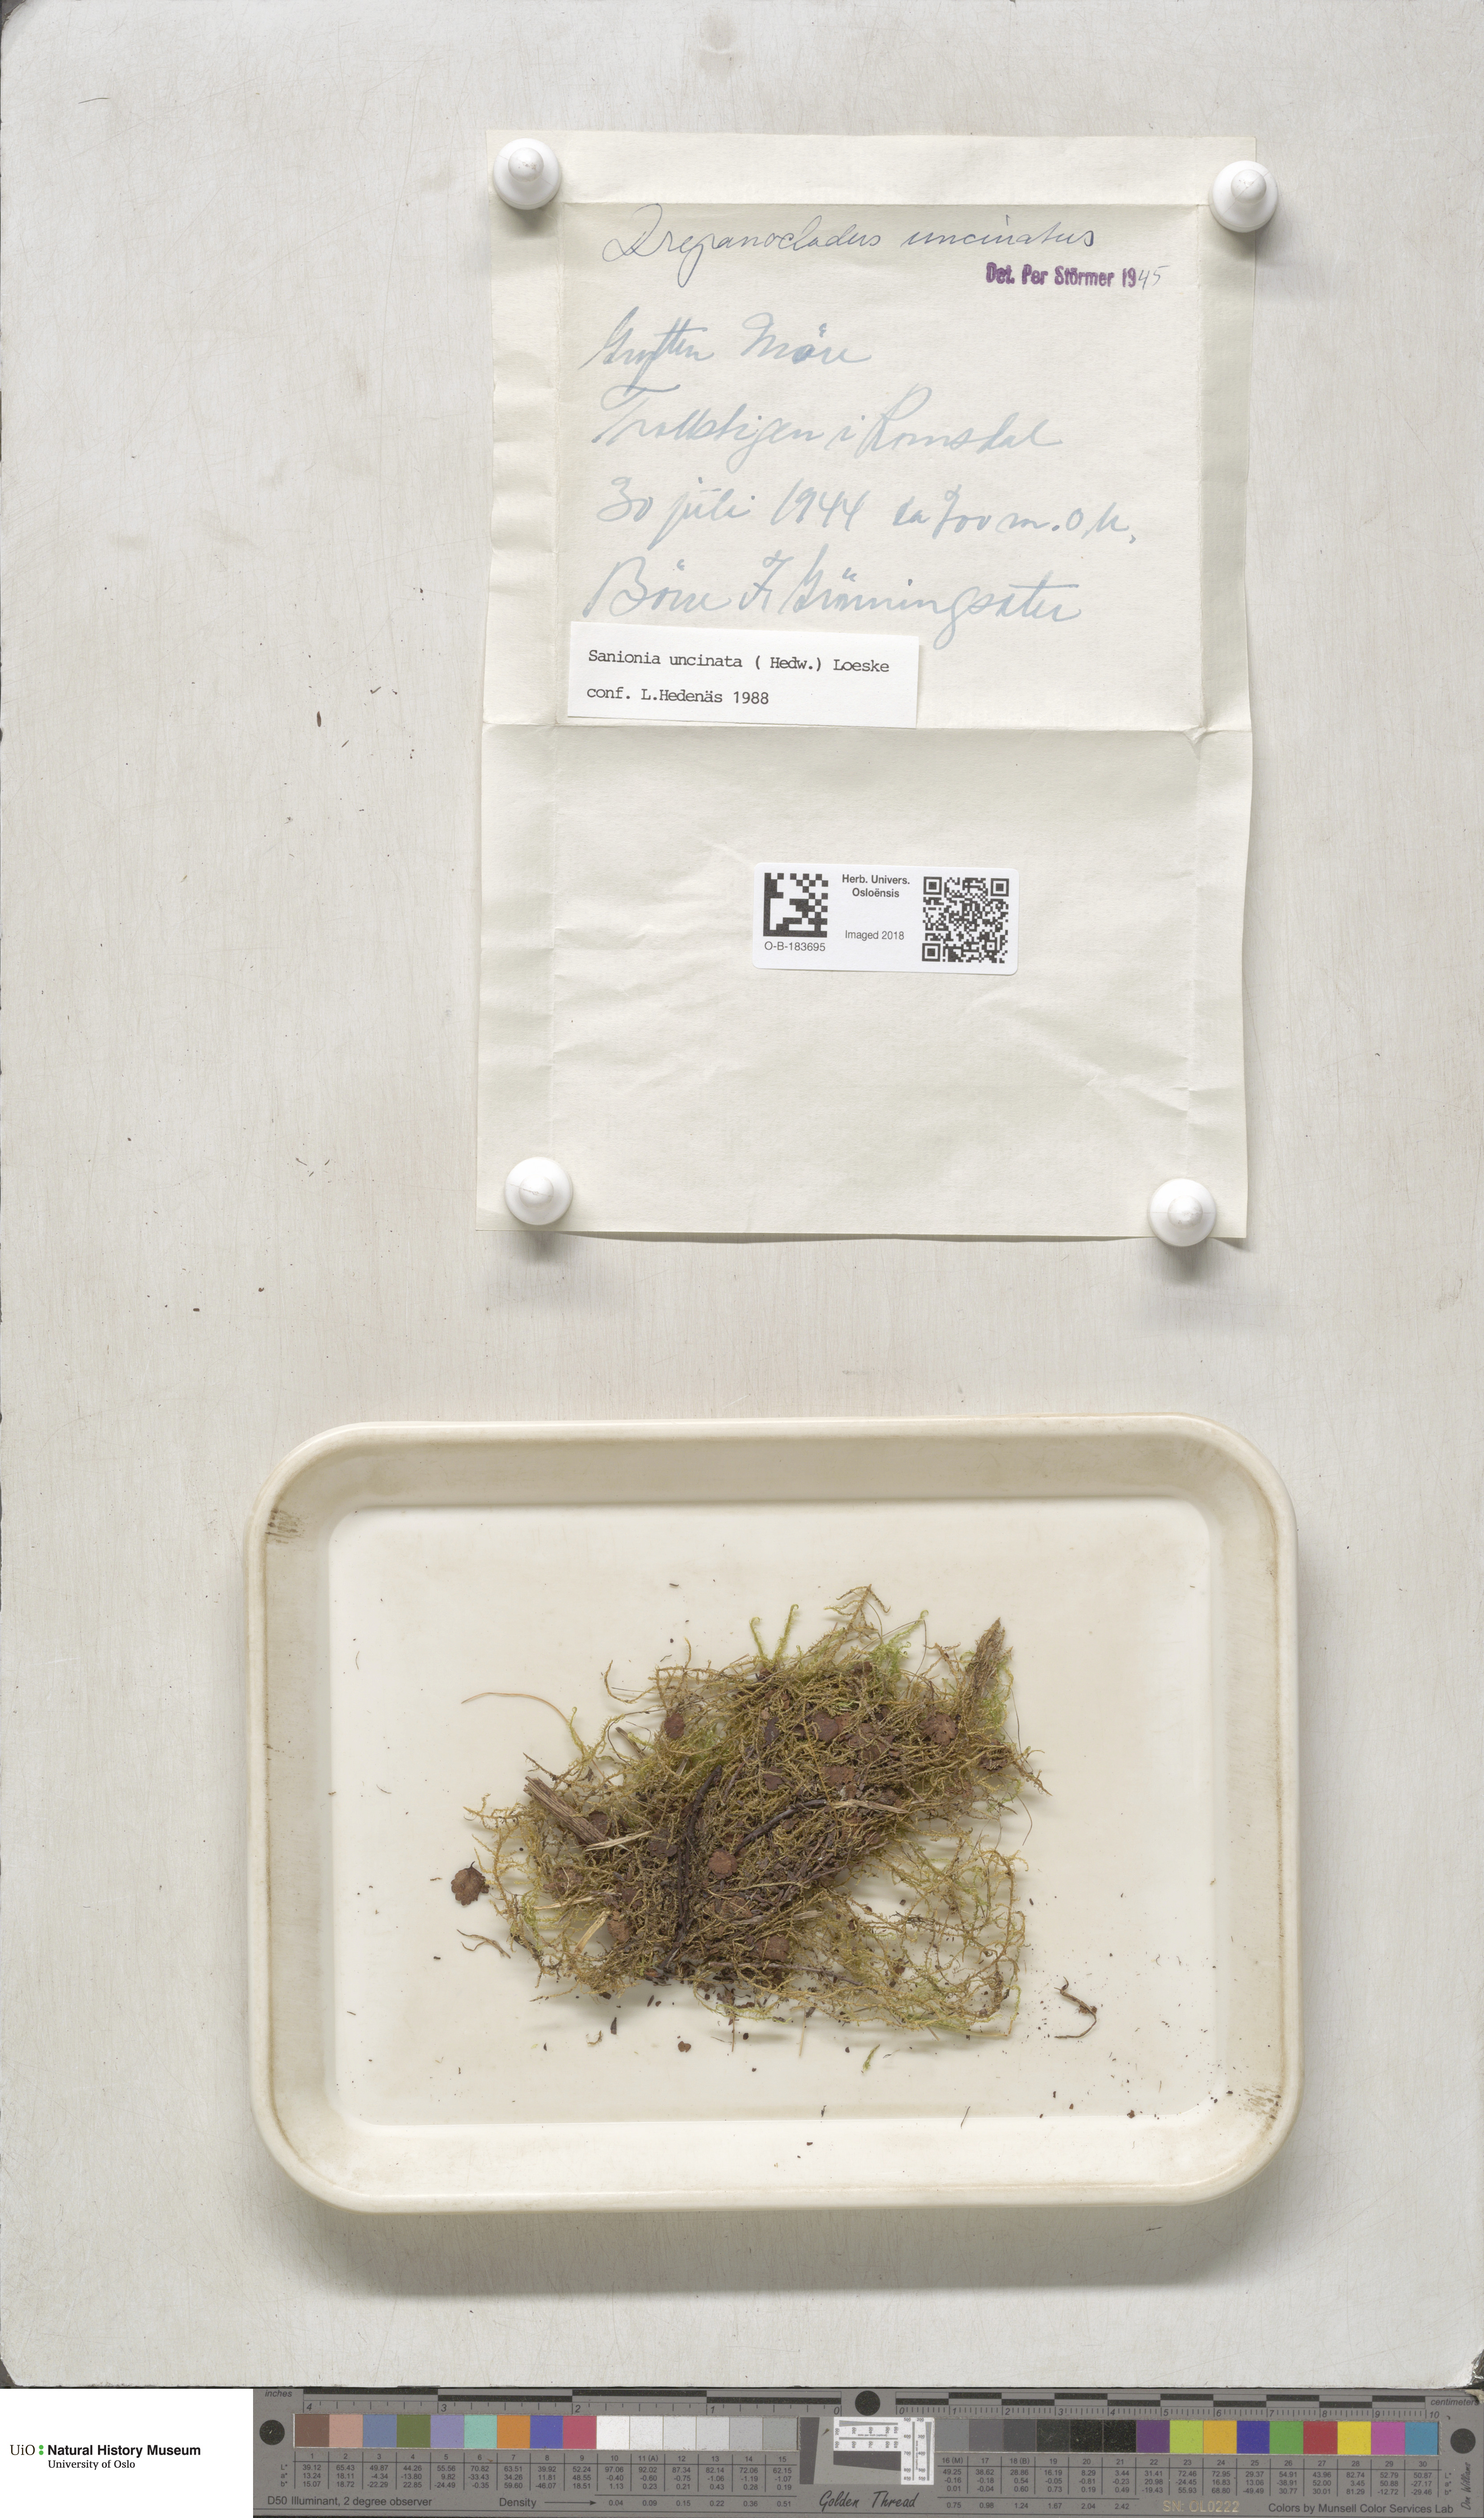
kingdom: Plantae
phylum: Bryophyta
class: Bryopsida
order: Hypnales
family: Scorpidiaceae
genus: Sanionia
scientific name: Sanionia uncinata
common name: Sickle moss
